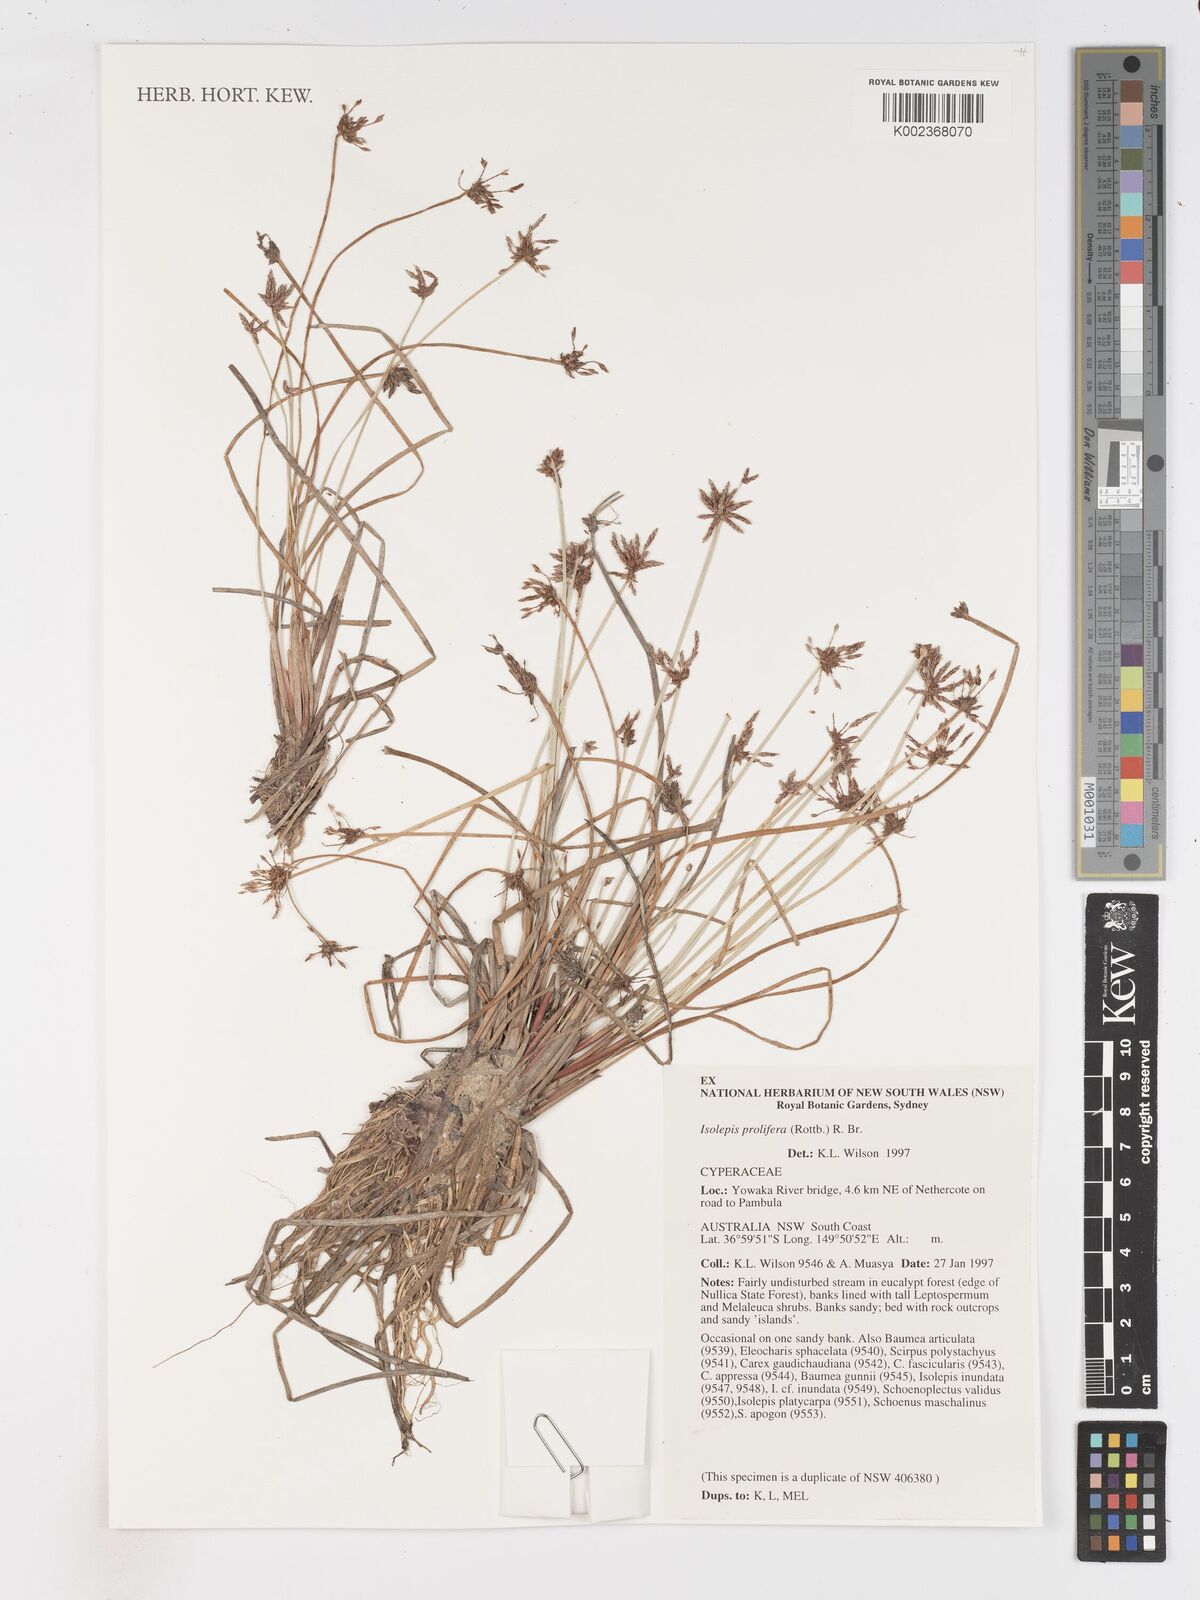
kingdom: Plantae
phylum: Tracheophyta
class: Liliopsida
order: Poales
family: Cyperaceae
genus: Isolepis
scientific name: Isolepis prolifera
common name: Proliferating bulrush
